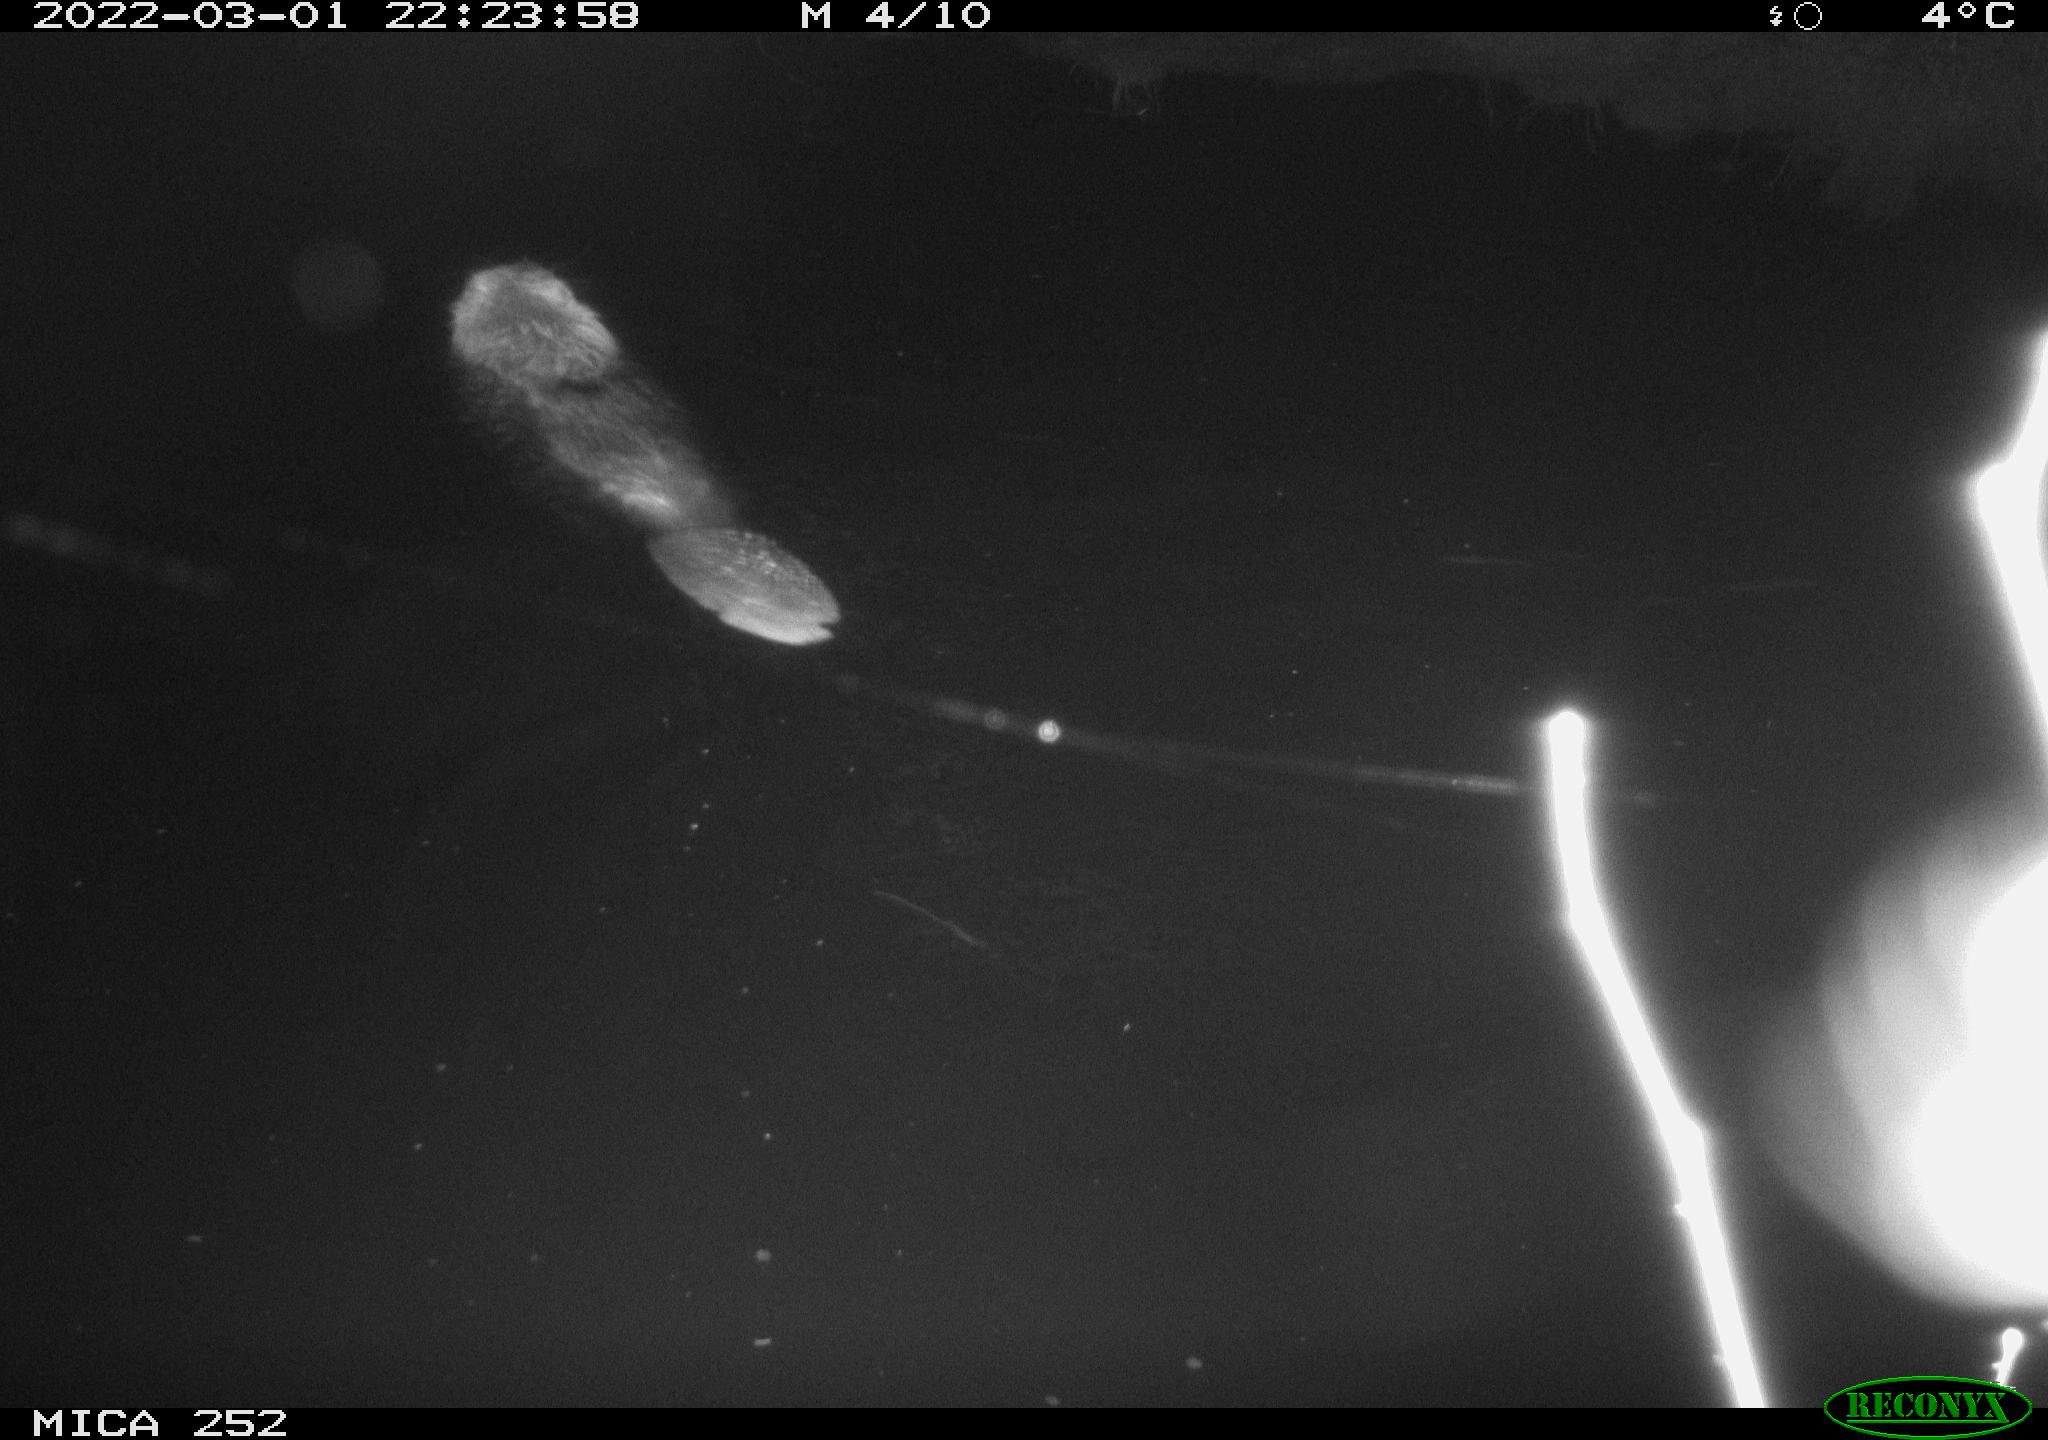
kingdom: Animalia
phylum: Chordata
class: Mammalia
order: Rodentia
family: Castoridae
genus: Castor
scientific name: Castor fiber
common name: Eurasian beaver
